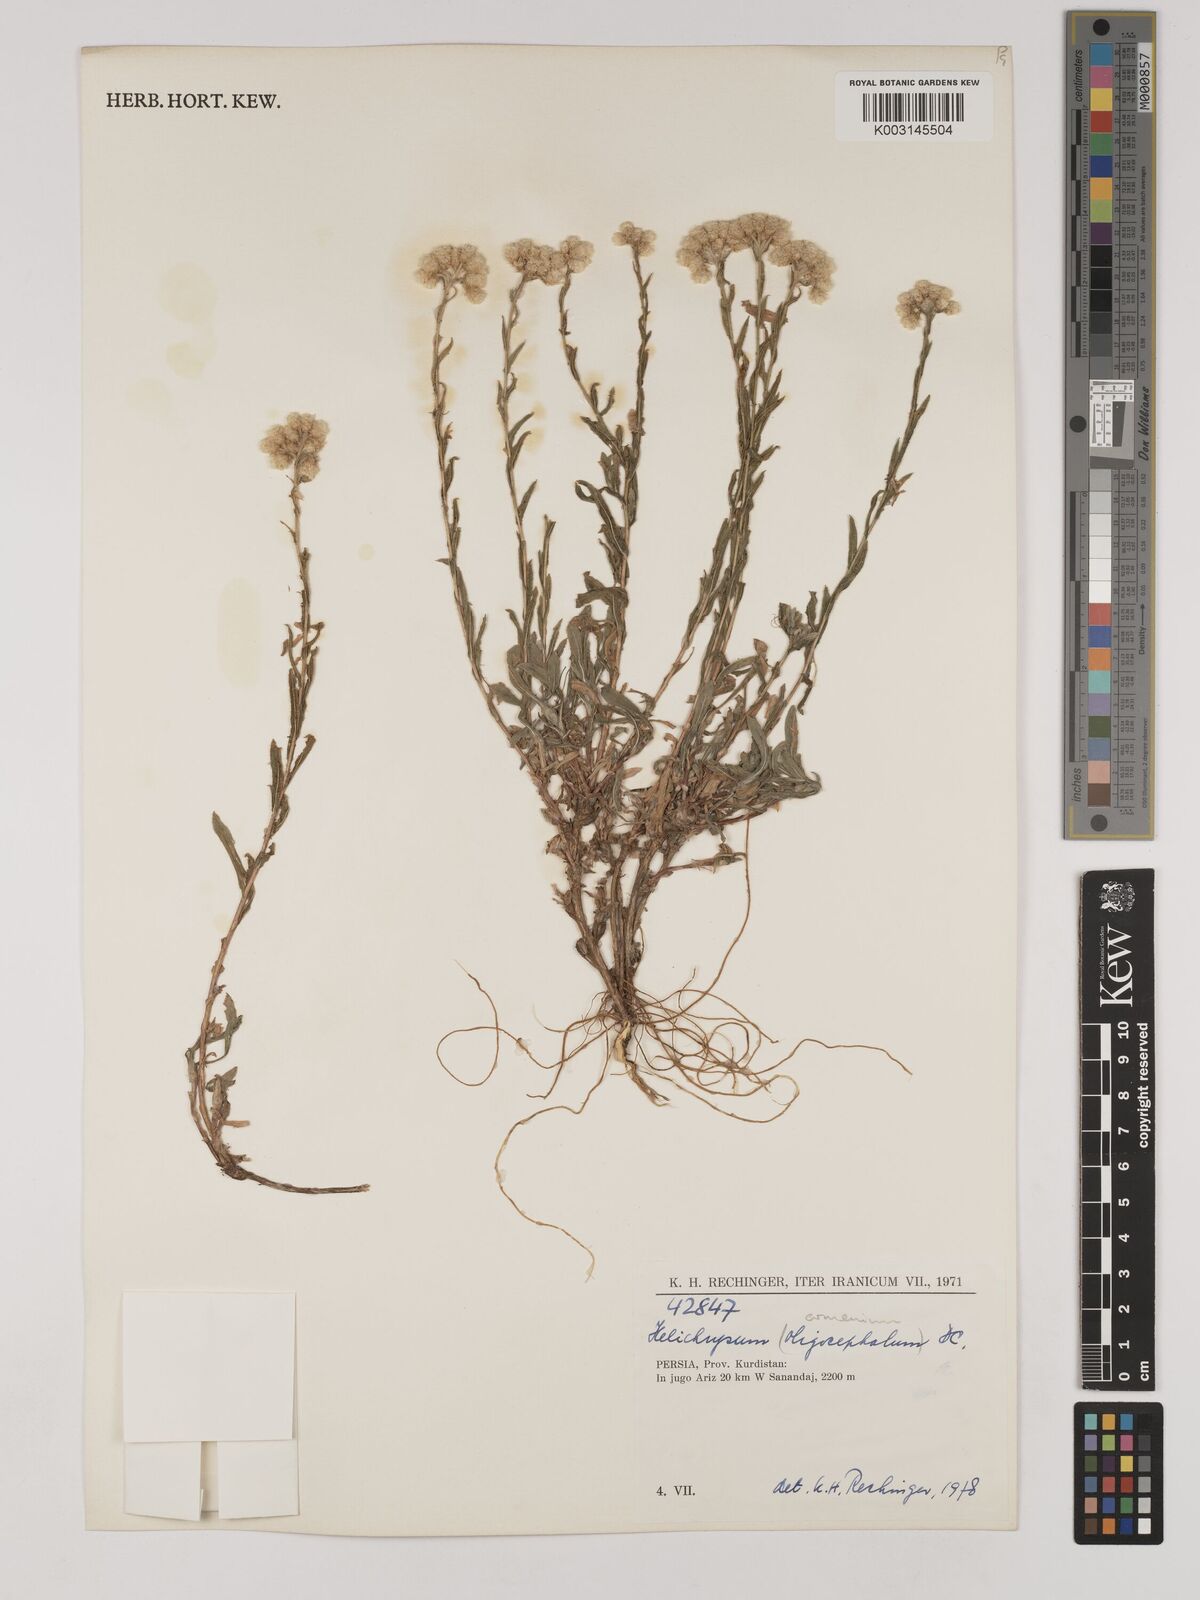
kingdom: Plantae
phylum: Tracheophyta
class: Magnoliopsida
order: Asterales
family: Asteraceae
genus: Helichrysum
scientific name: Helichrysum armenium
